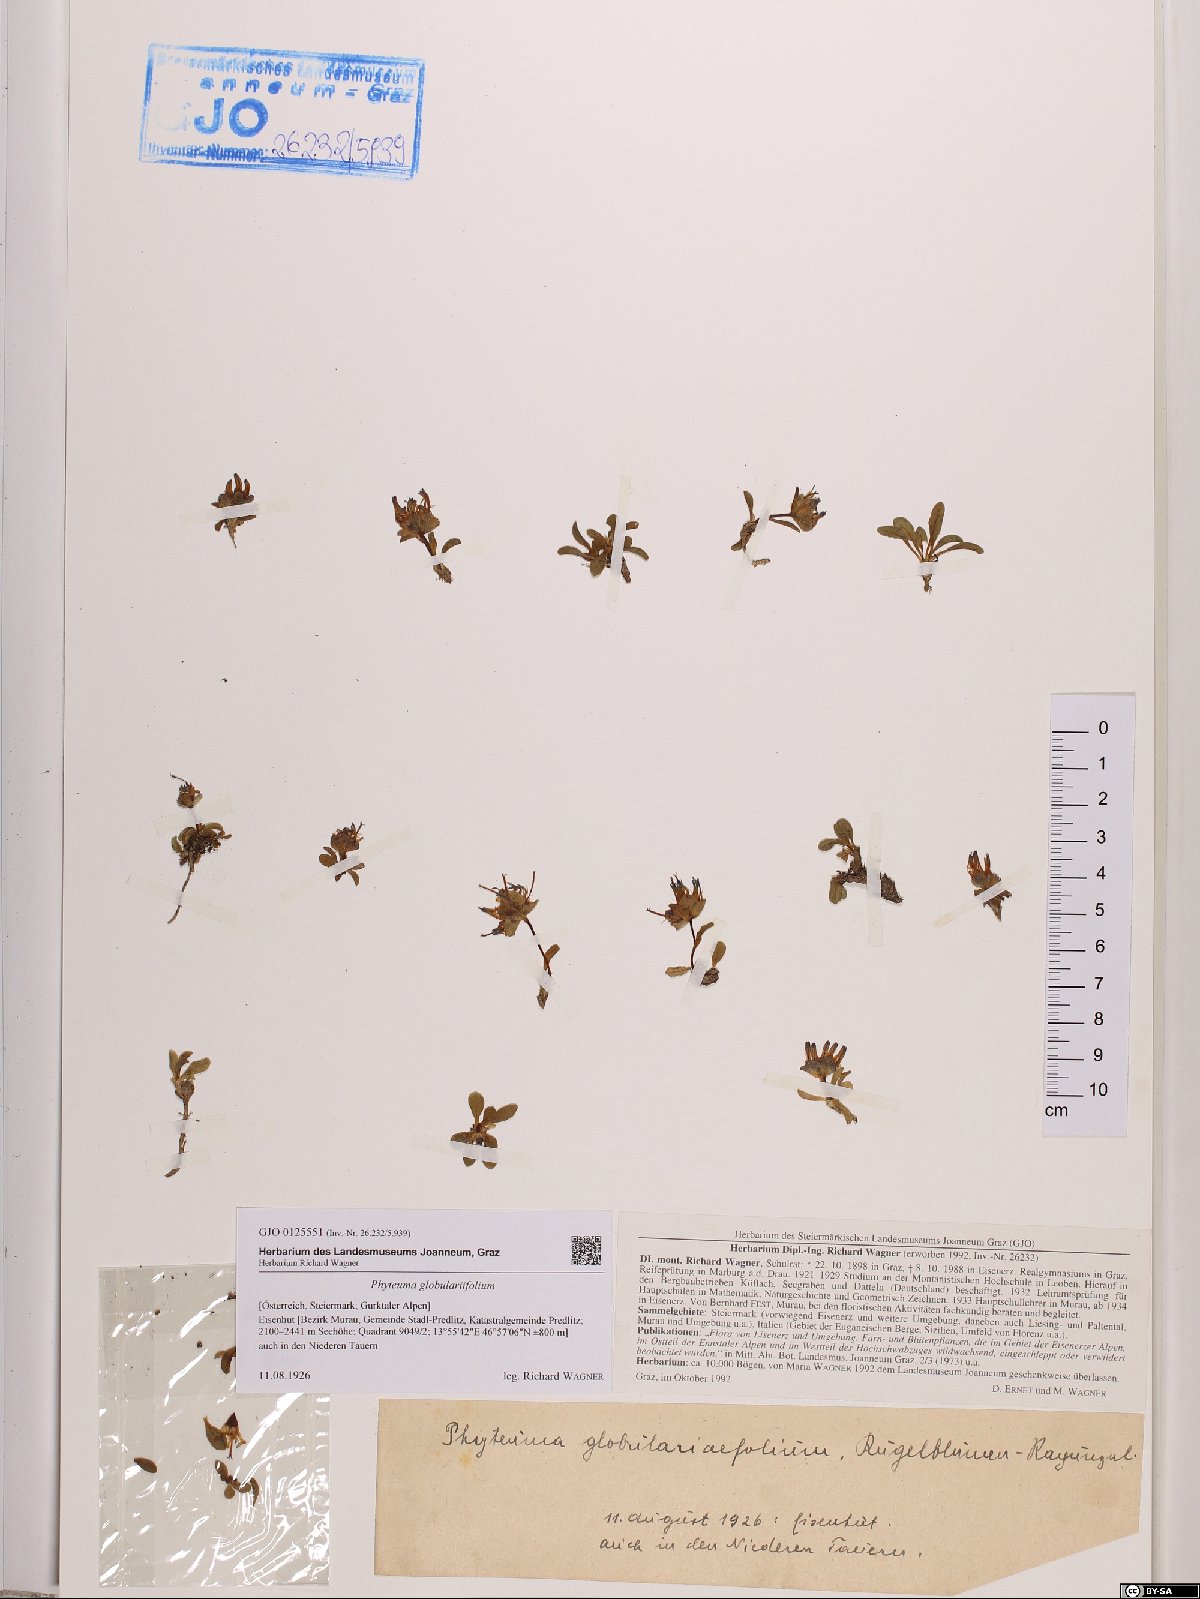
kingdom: Plantae
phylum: Tracheophyta
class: Magnoliopsida
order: Asterales
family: Campanulaceae
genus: Phyteuma
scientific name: Phyteuma globulariifolium
